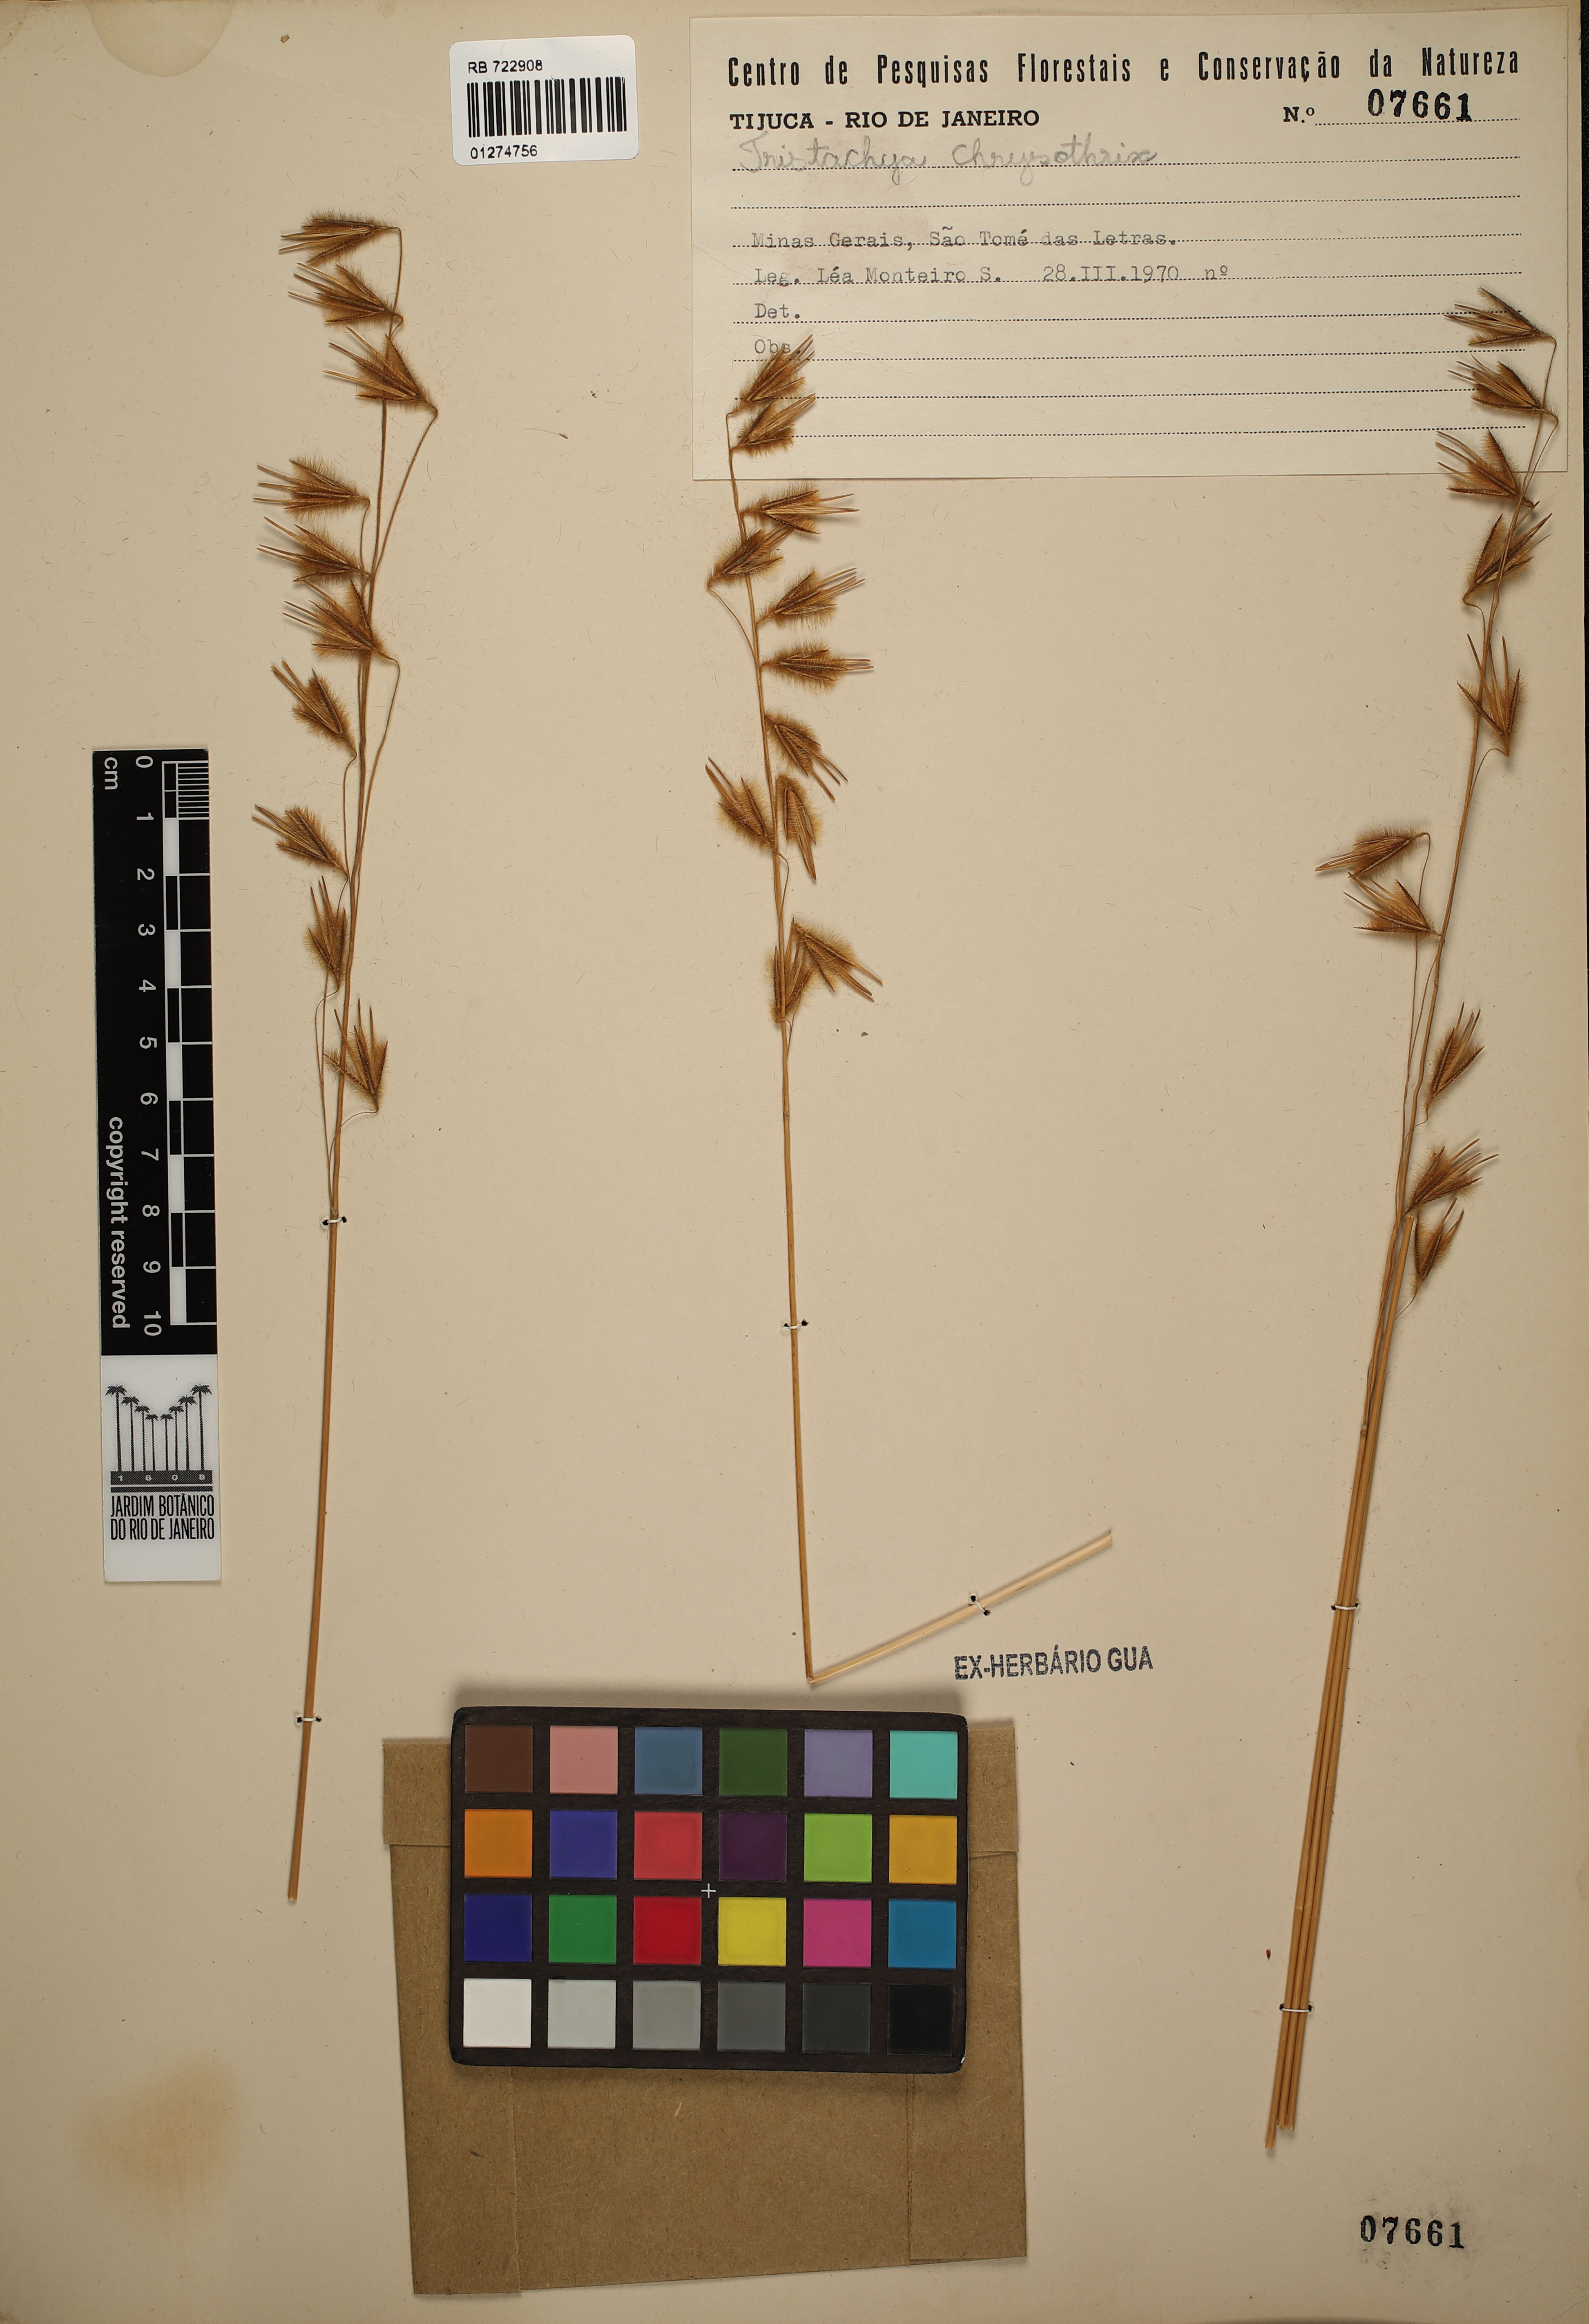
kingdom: Plantae
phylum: Tracheophyta
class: Liliopsida
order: Poales
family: Poaceae
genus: Loudetiopsis
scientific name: Loudetiopsis chrysothrix
